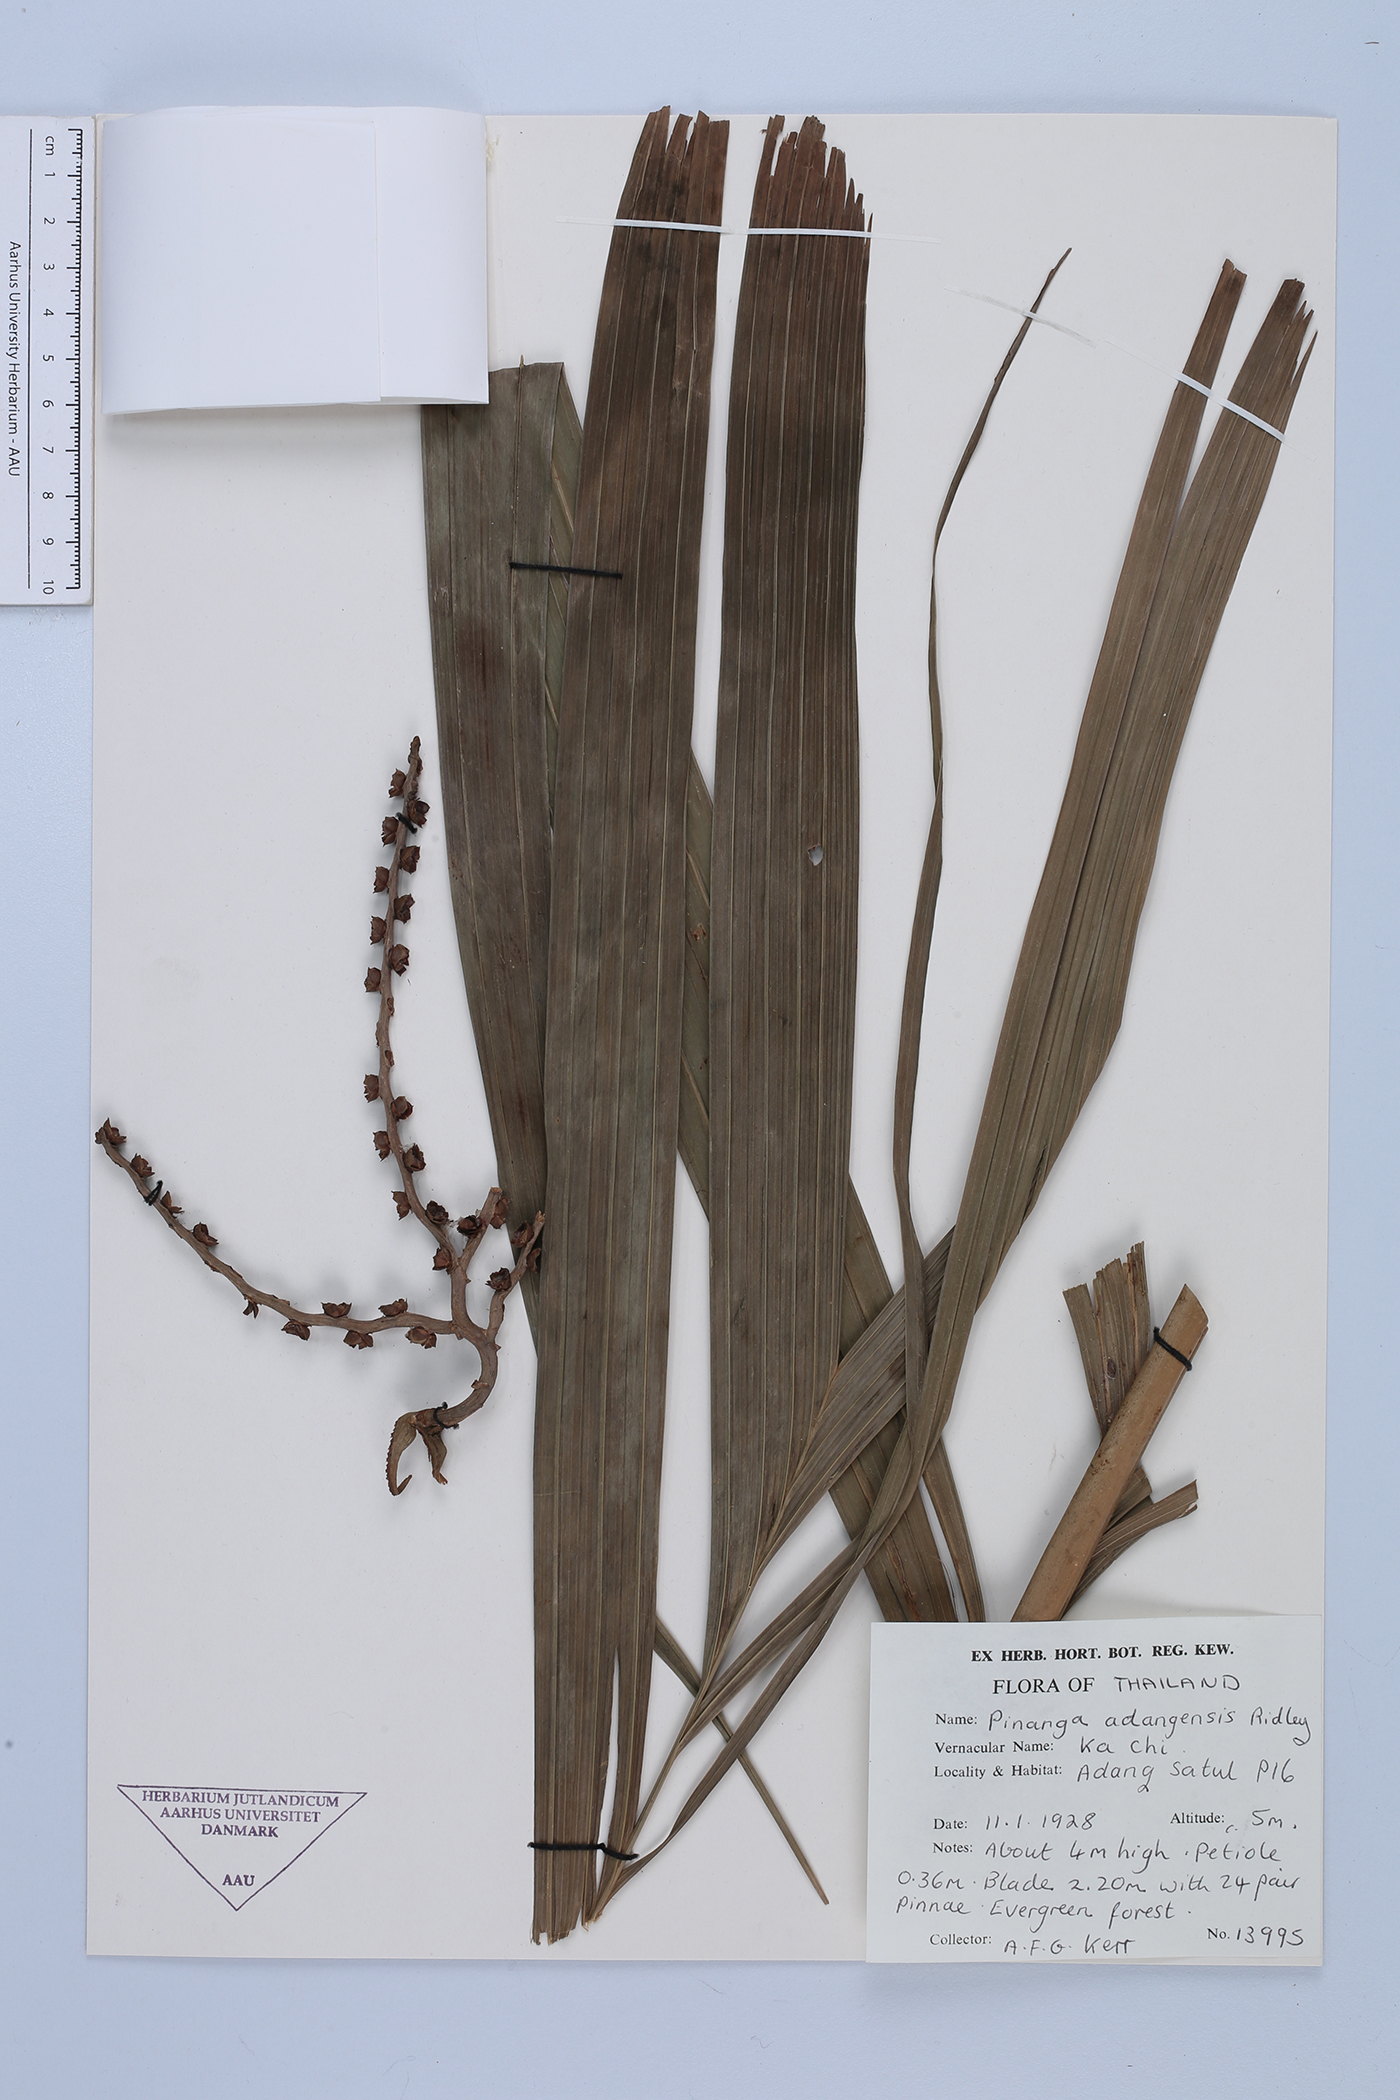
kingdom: Plantae
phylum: Tracheophyta
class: Liliopsida
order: Arecales
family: Arecaceae
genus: Pinanga
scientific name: Pinanga adangensis
